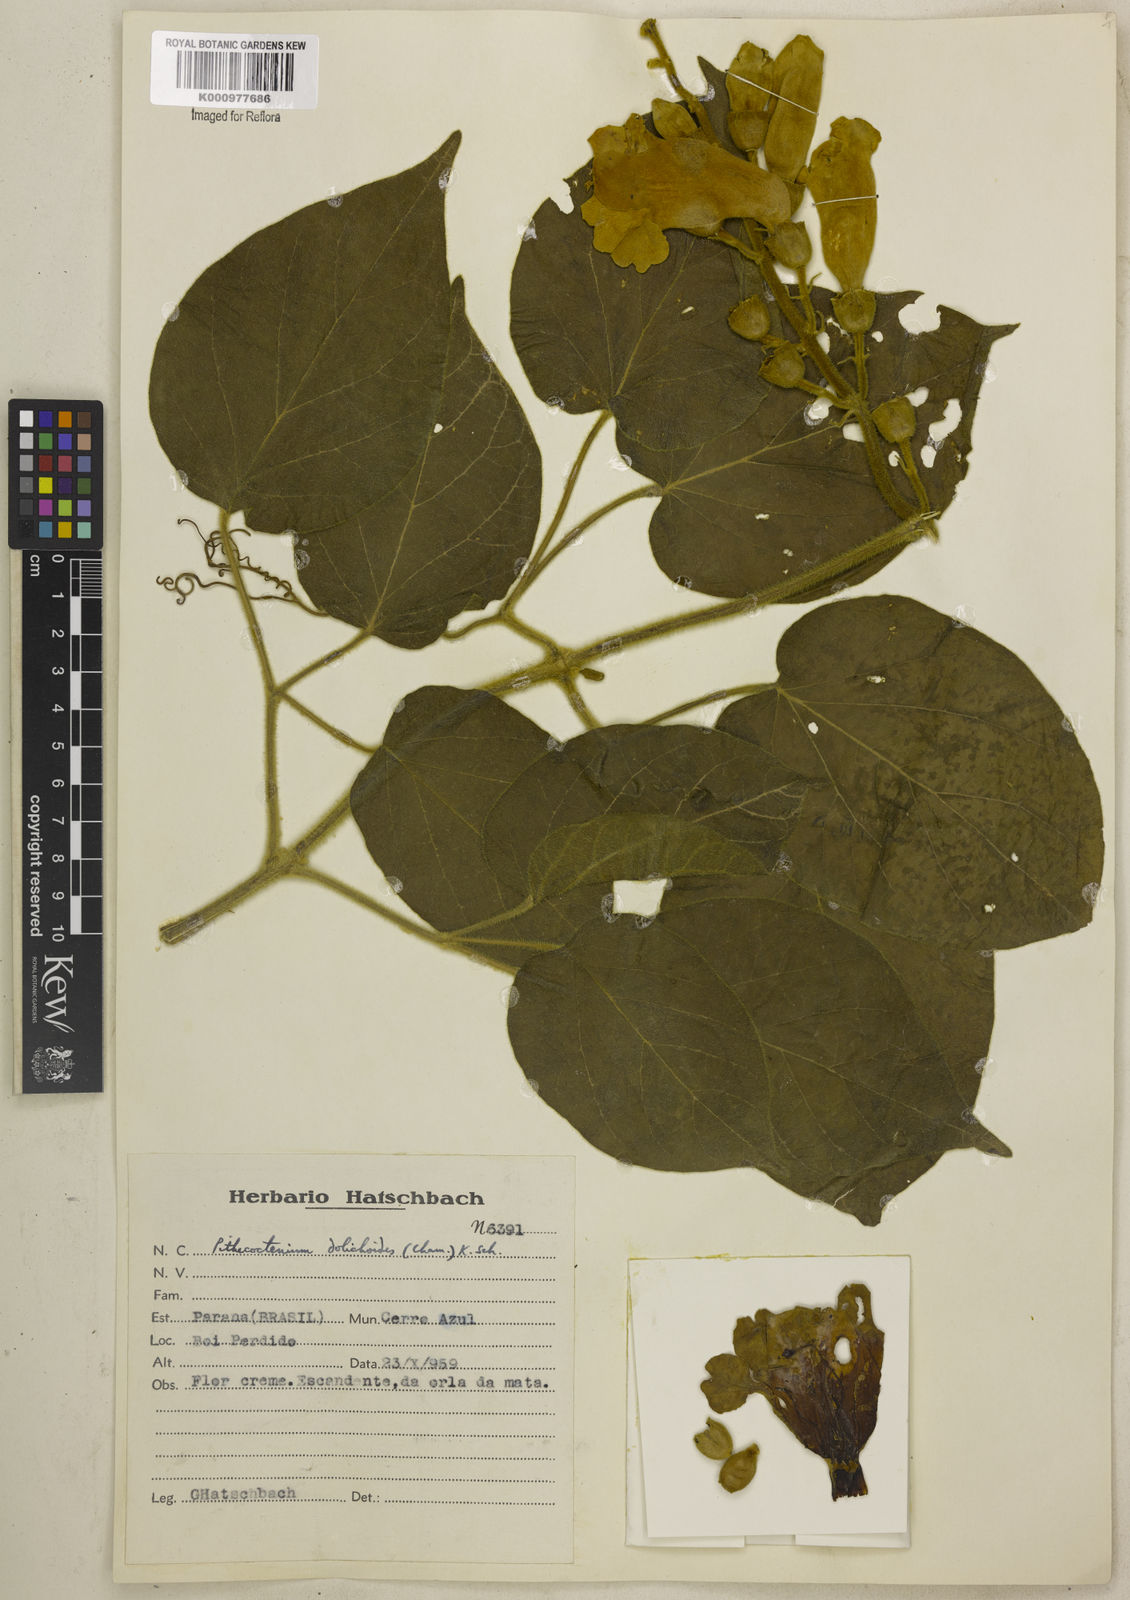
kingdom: Plantae
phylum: Tracheophyta
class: Magnoliopsida
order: Lamiales
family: Bignoniaceae
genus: Amphilophium
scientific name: Amphilophium dolichoides
